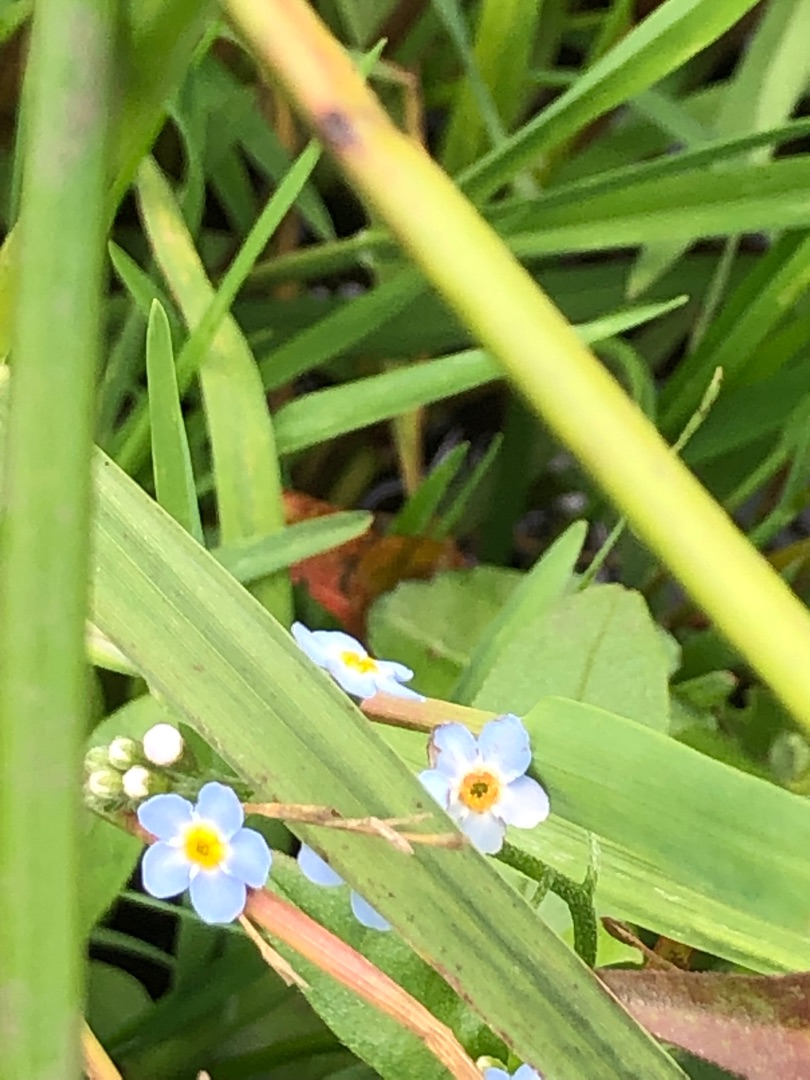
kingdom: Plantae
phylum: Tracheophyta
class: Magnoliopsida
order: Boraginales
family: Boraginaceae
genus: Myosotis
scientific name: Myosotis scorpioides
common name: Eng-forglemmigej
